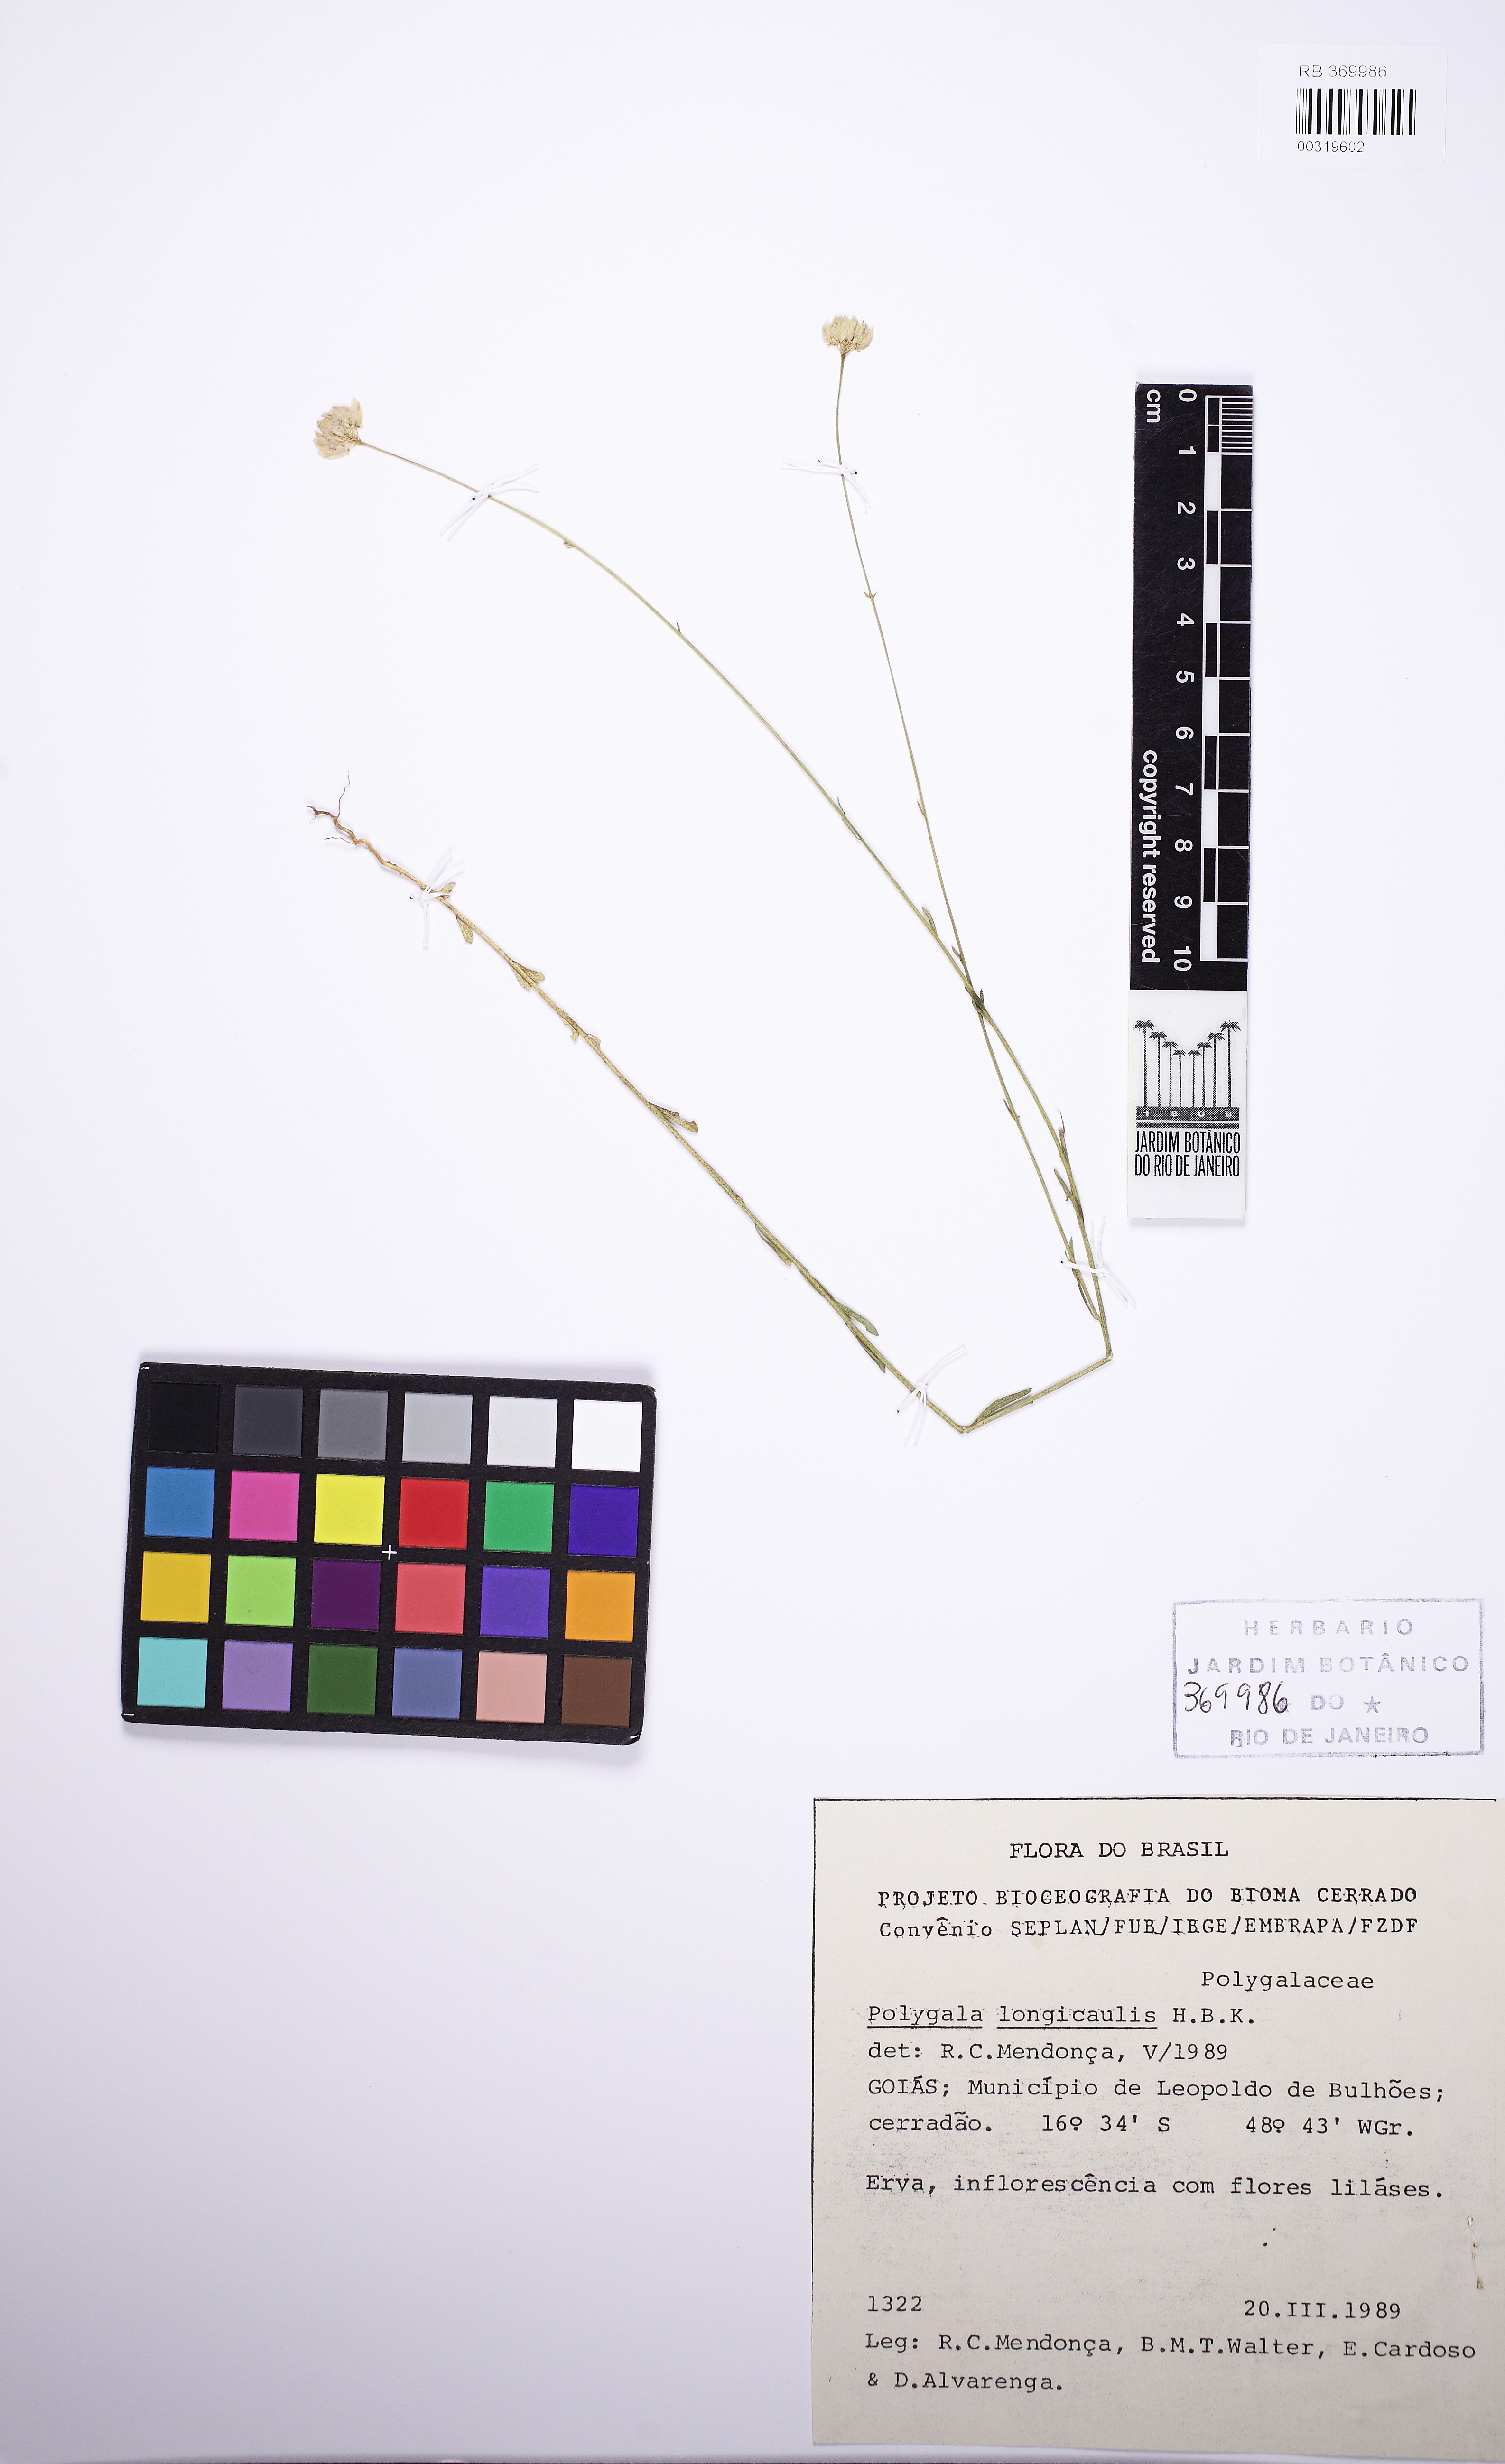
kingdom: Plantae
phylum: Tracheophyta
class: Magnoliopsida
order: Fabales
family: Polygalaceae
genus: Polygala
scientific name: Polygala longicaulis
